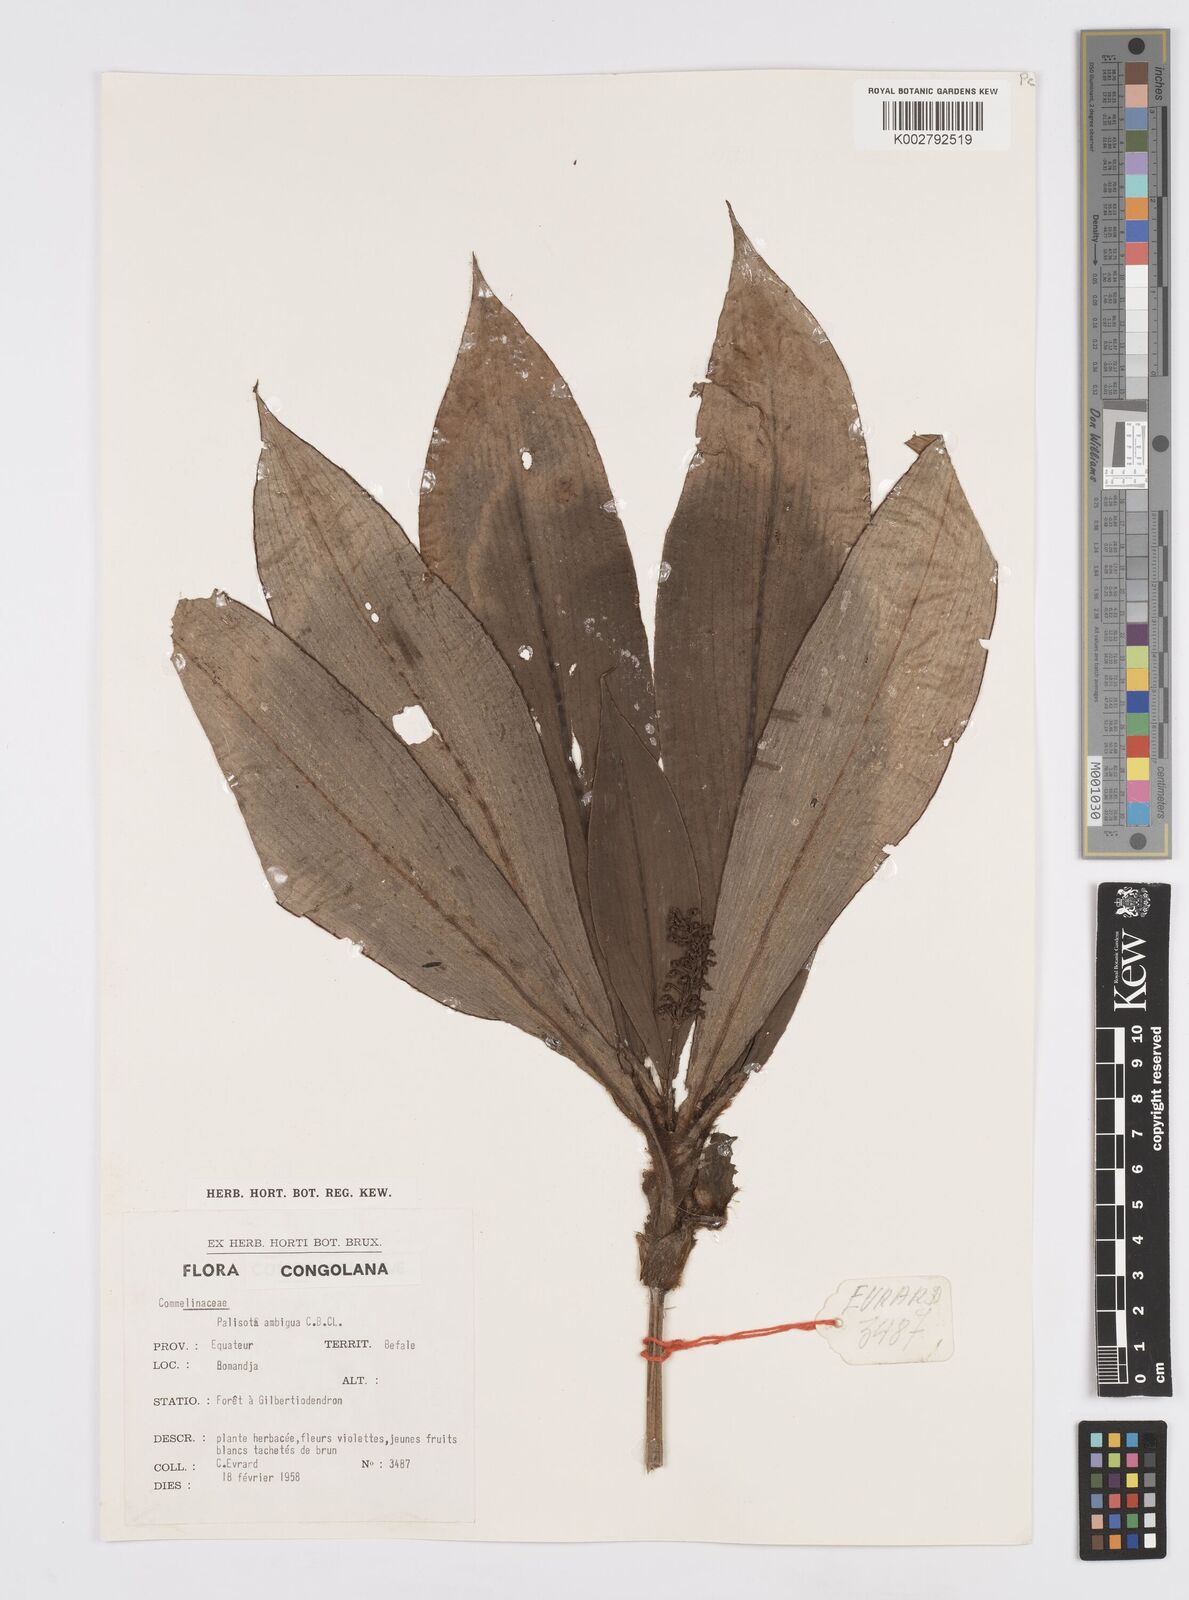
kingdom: Plantae
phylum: Tracheophyta
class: Liliopsida
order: Commelinales
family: Commelinaceae
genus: Palisota
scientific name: Palisota ambigua
